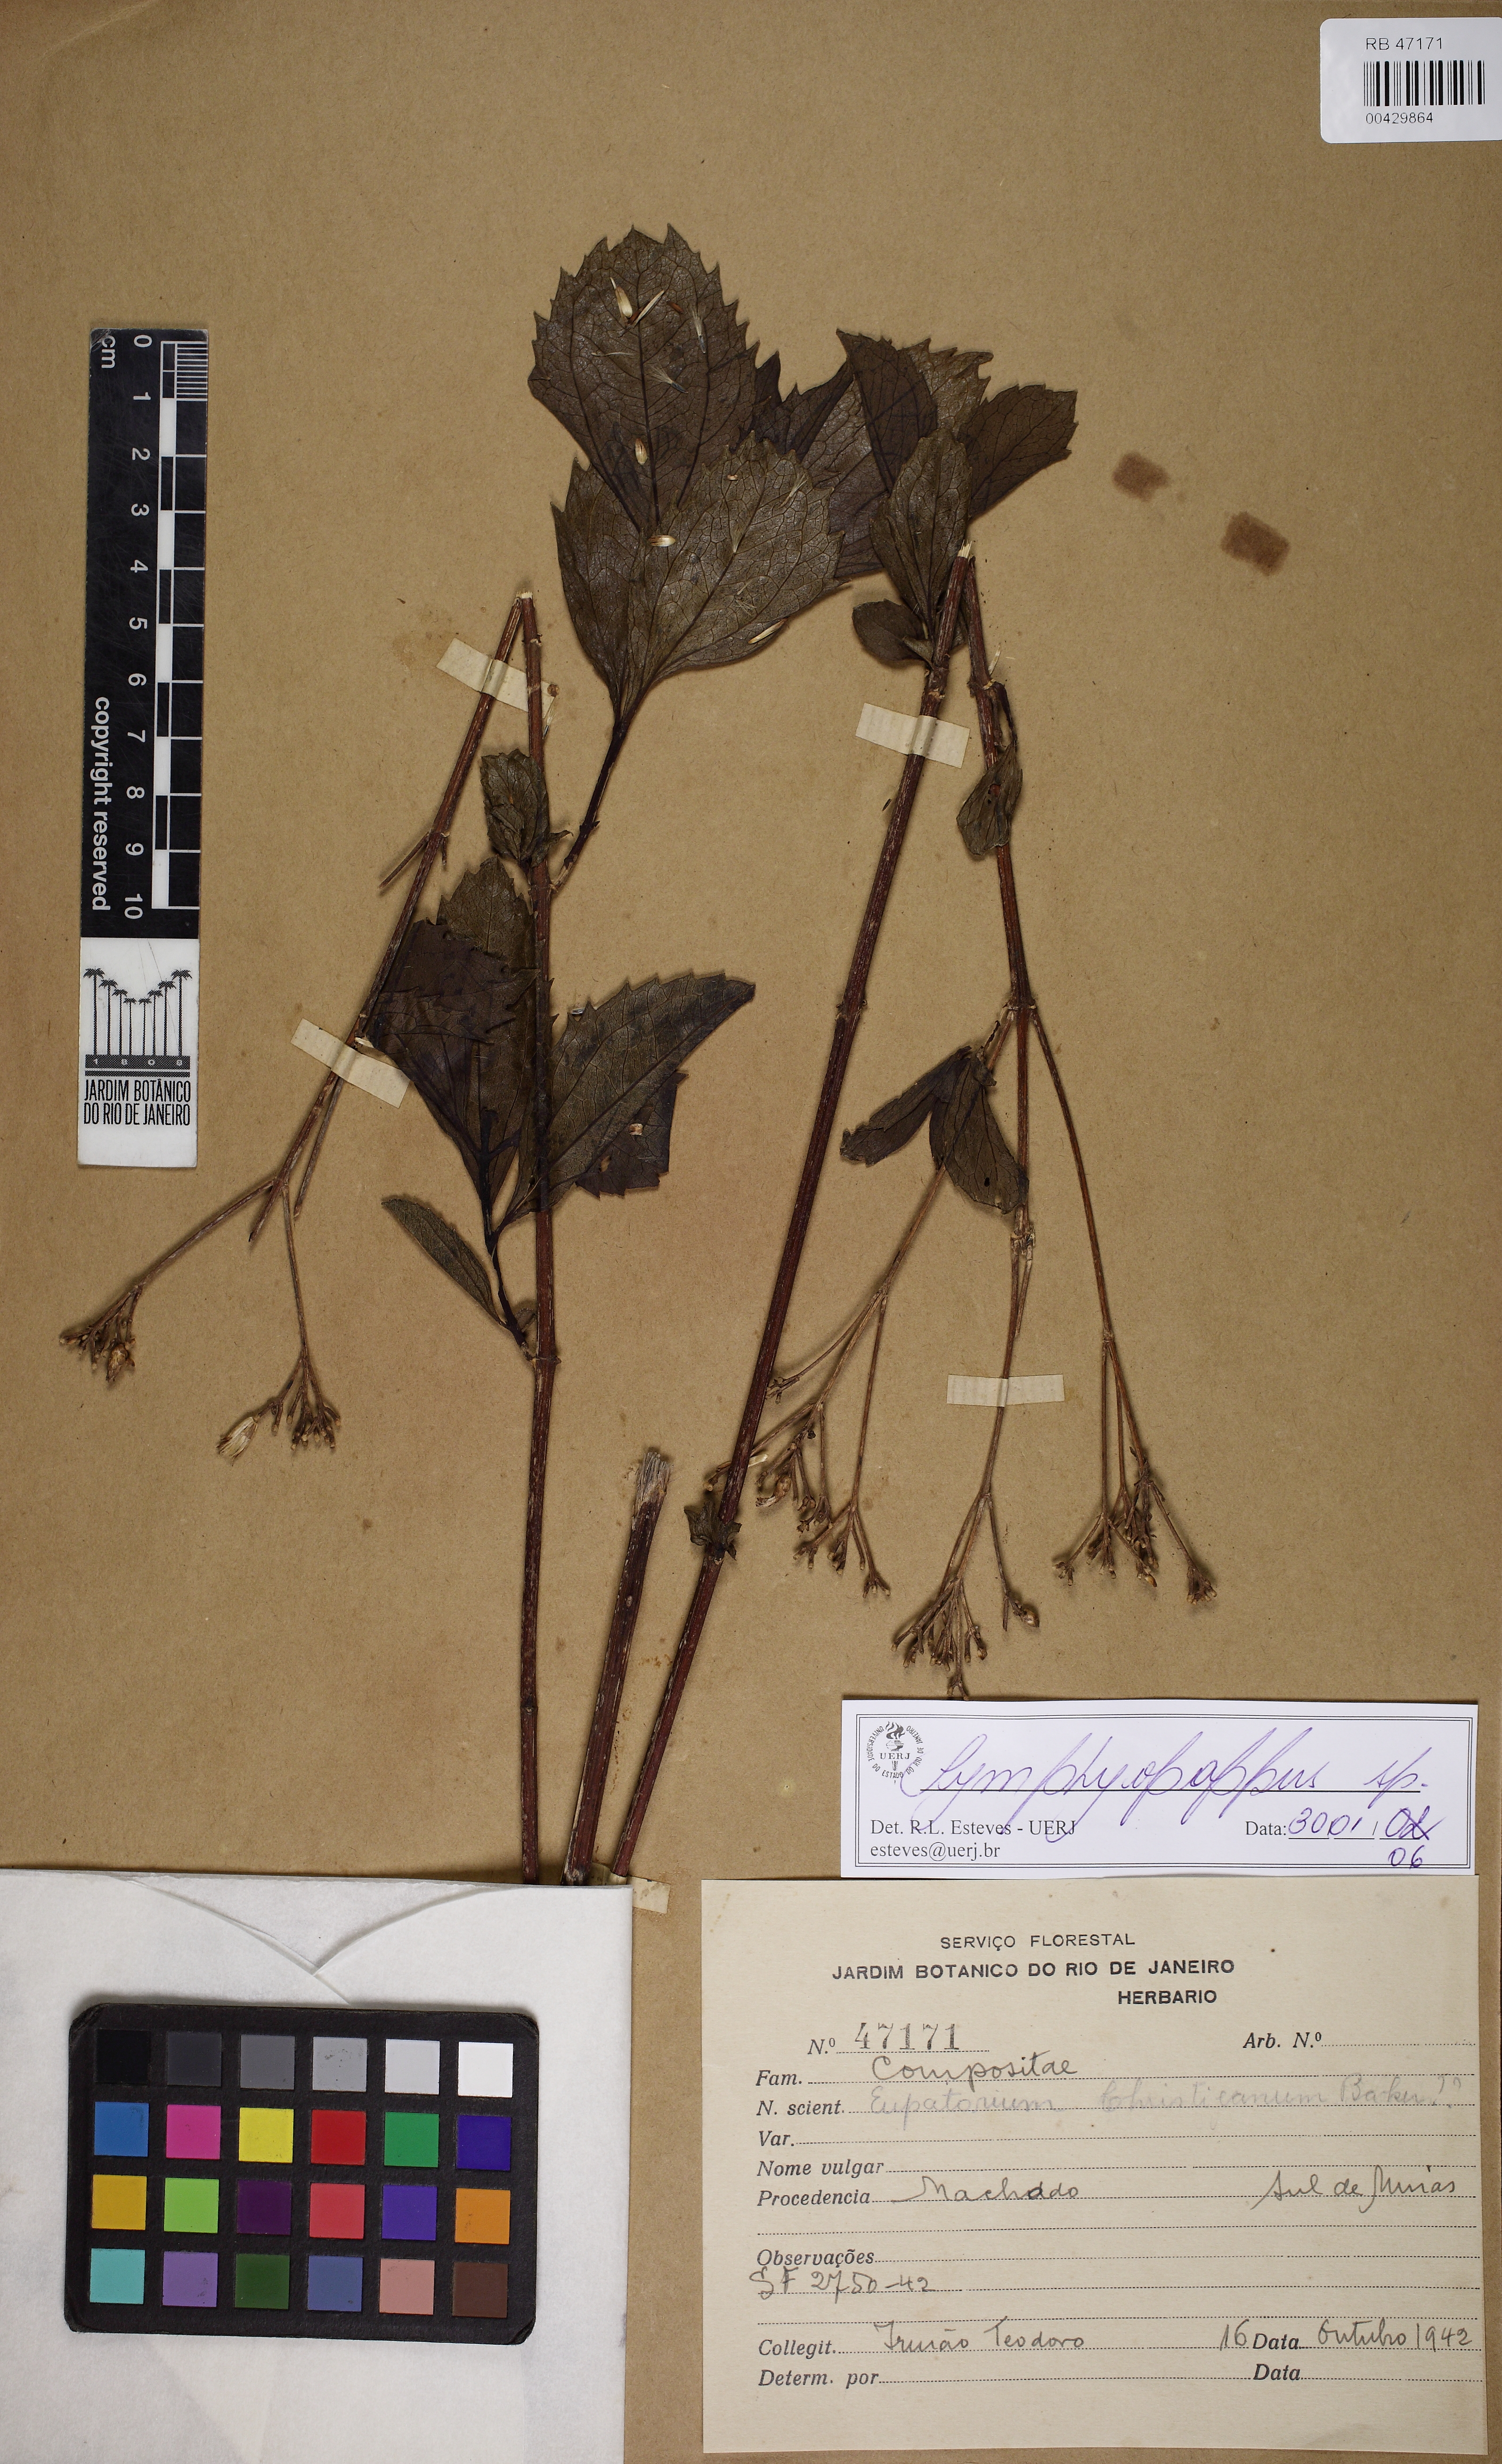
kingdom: Plantae
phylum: Tracheophyta
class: Magnoliopsida
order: Asterales
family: Asteraceae
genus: Symphyopappus
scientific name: Symphyopappus
